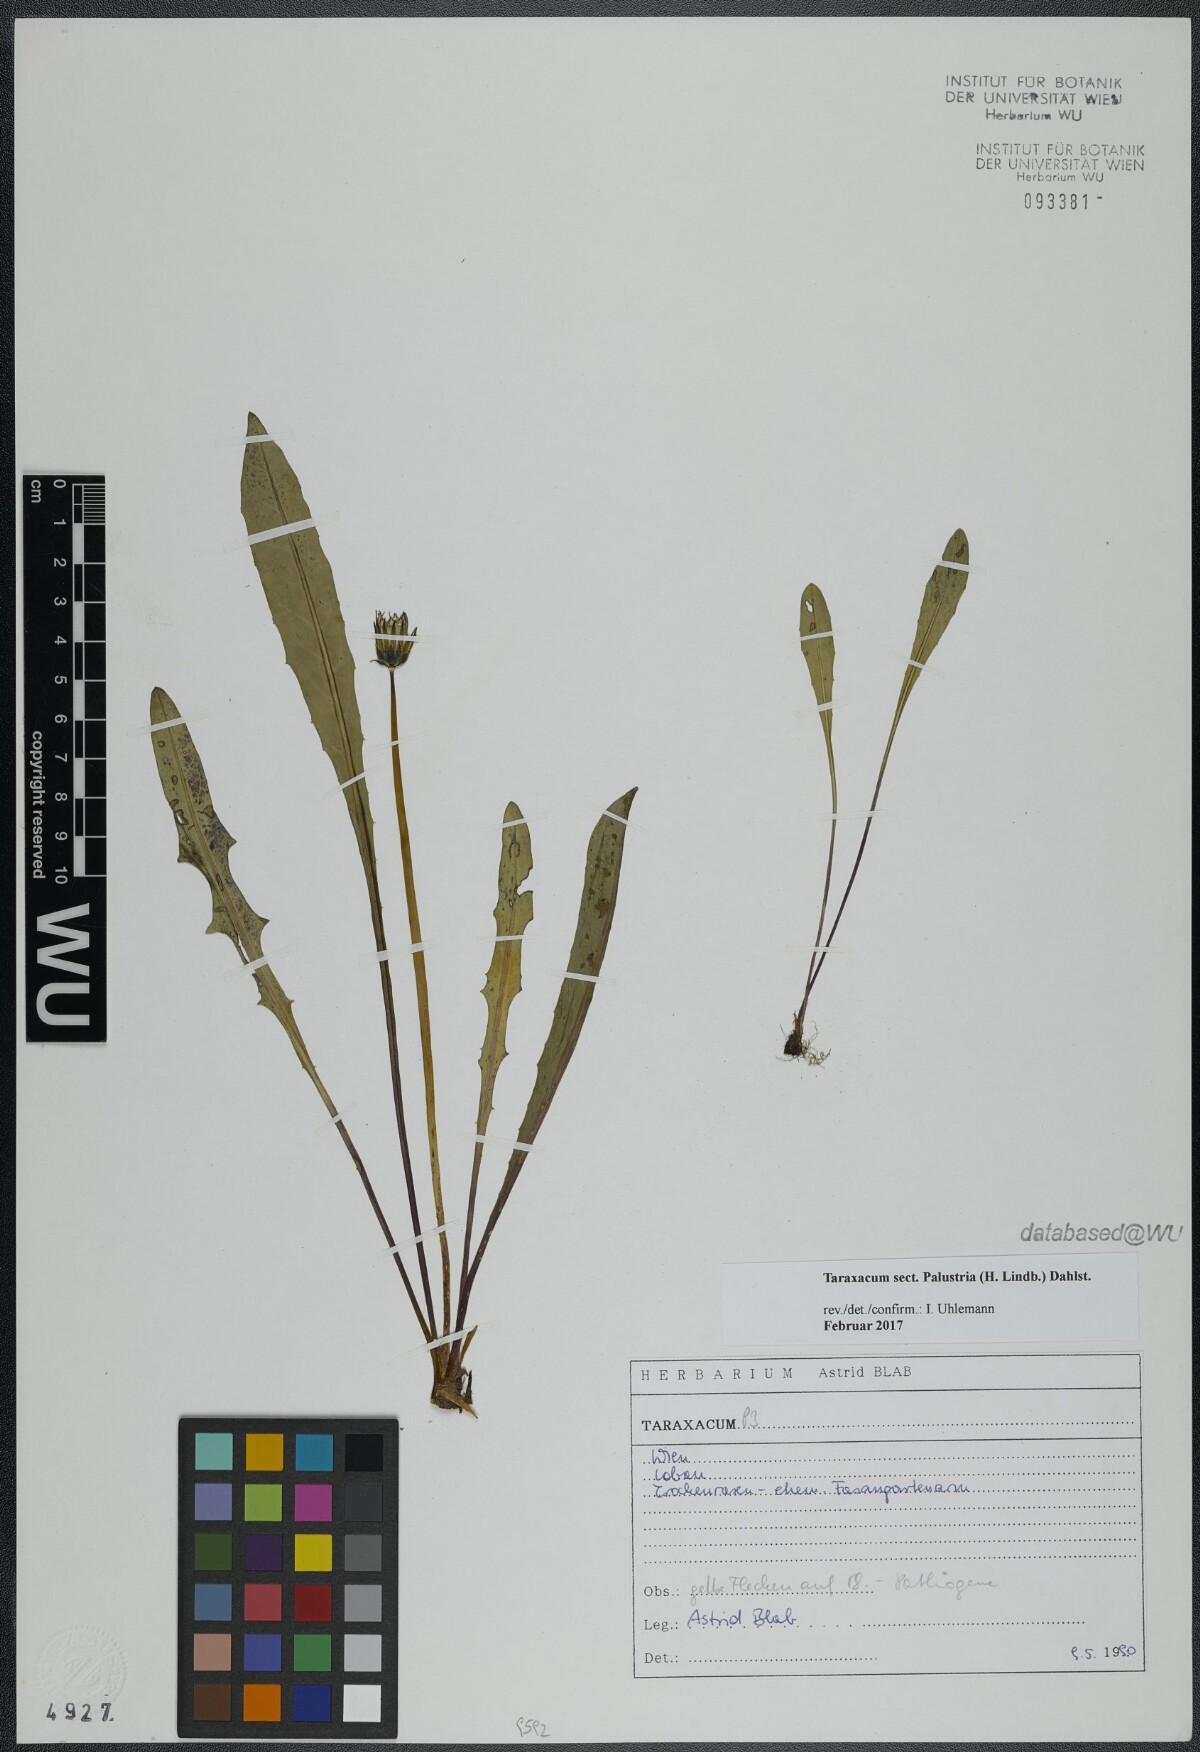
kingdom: Plantae
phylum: Tracheophyta
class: Magnoliopsida
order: Asterales
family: Asteraceae
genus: Taraxacum
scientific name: Taraxacum
